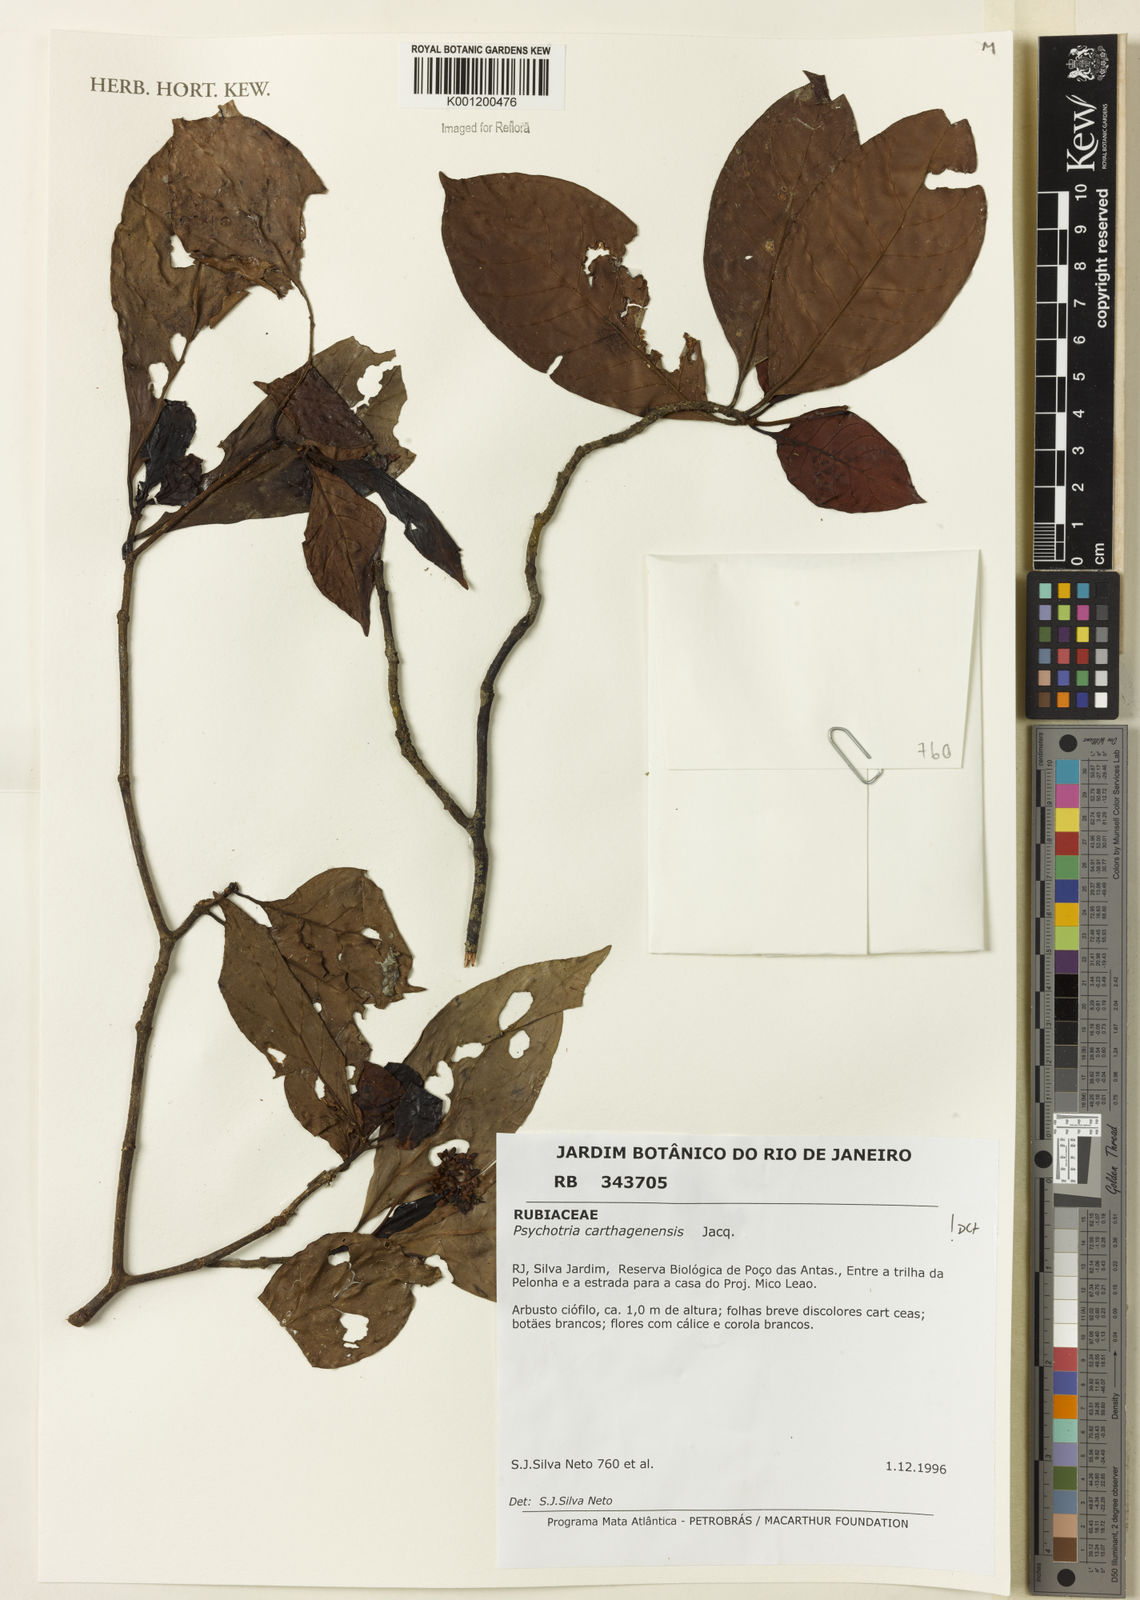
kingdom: Plantae
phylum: Tracheophyta
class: Magnoliopsida
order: Gentianales
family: Rubiaceae
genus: Psychotria
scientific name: Psychotria carthagenensis
